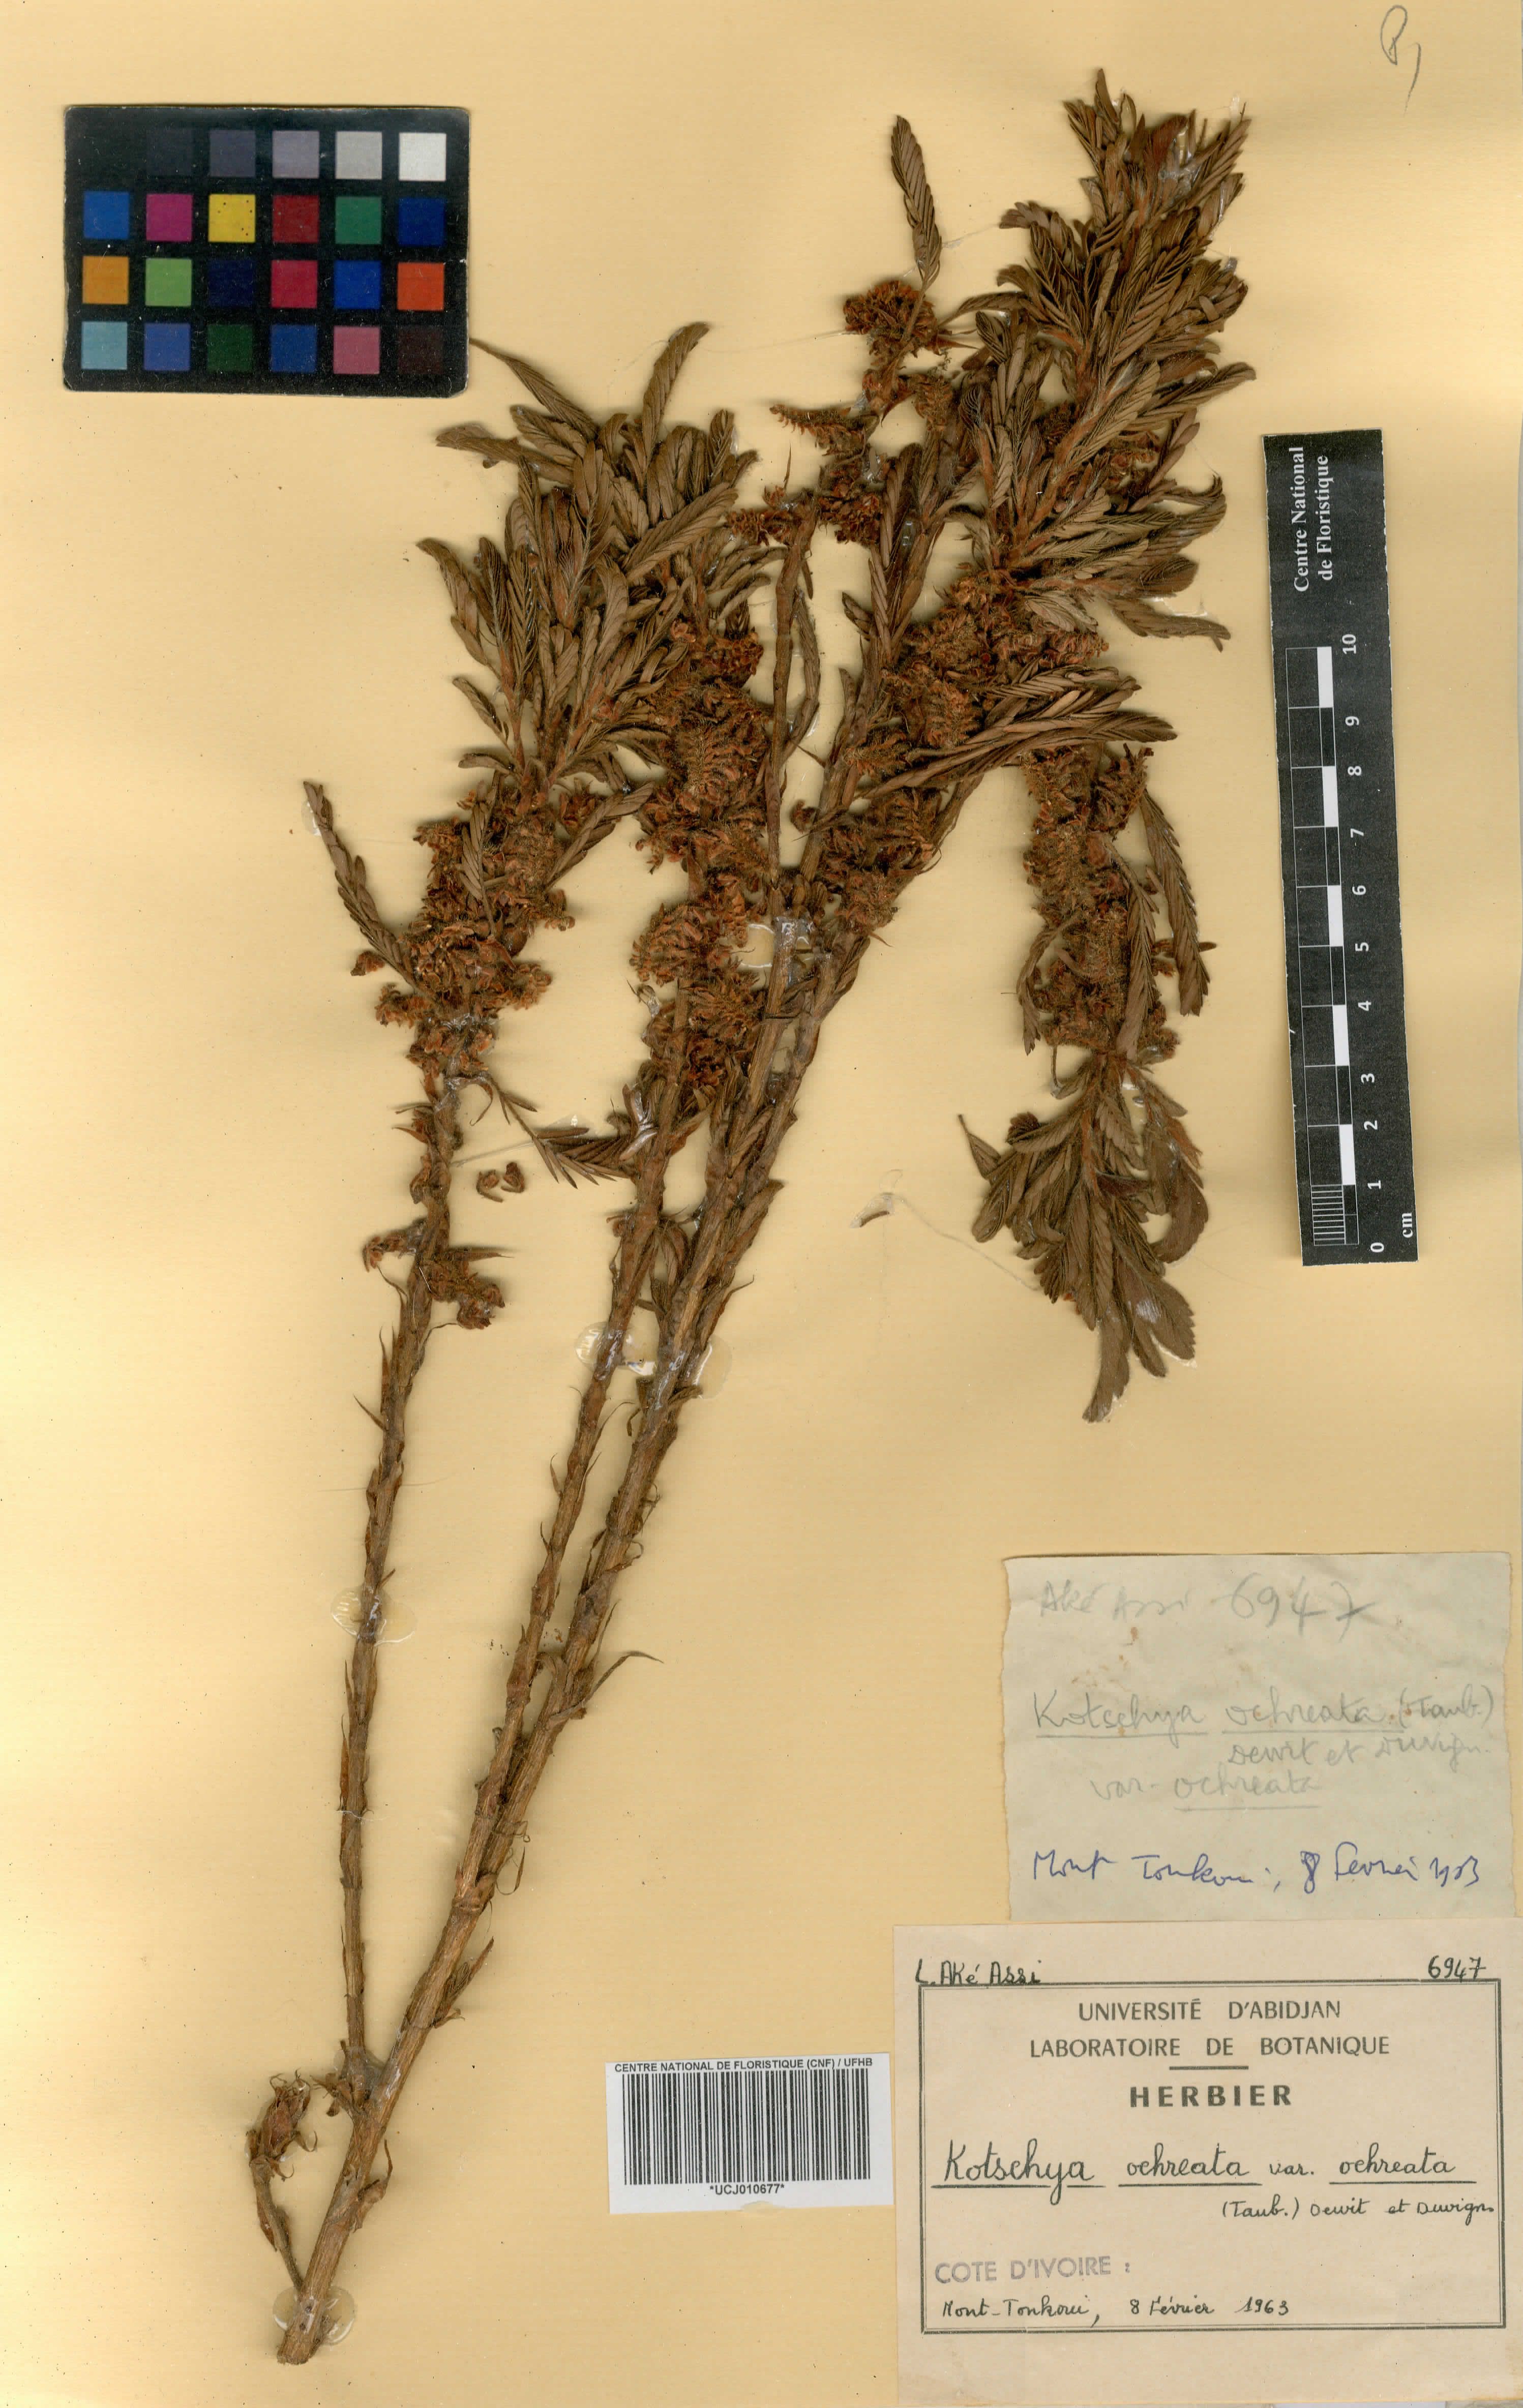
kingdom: Plantae
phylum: Tracheophyta
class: Magnoliopsida
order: Fabales
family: Fabaceae
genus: Kotschya
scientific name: Kotschya ochreata
